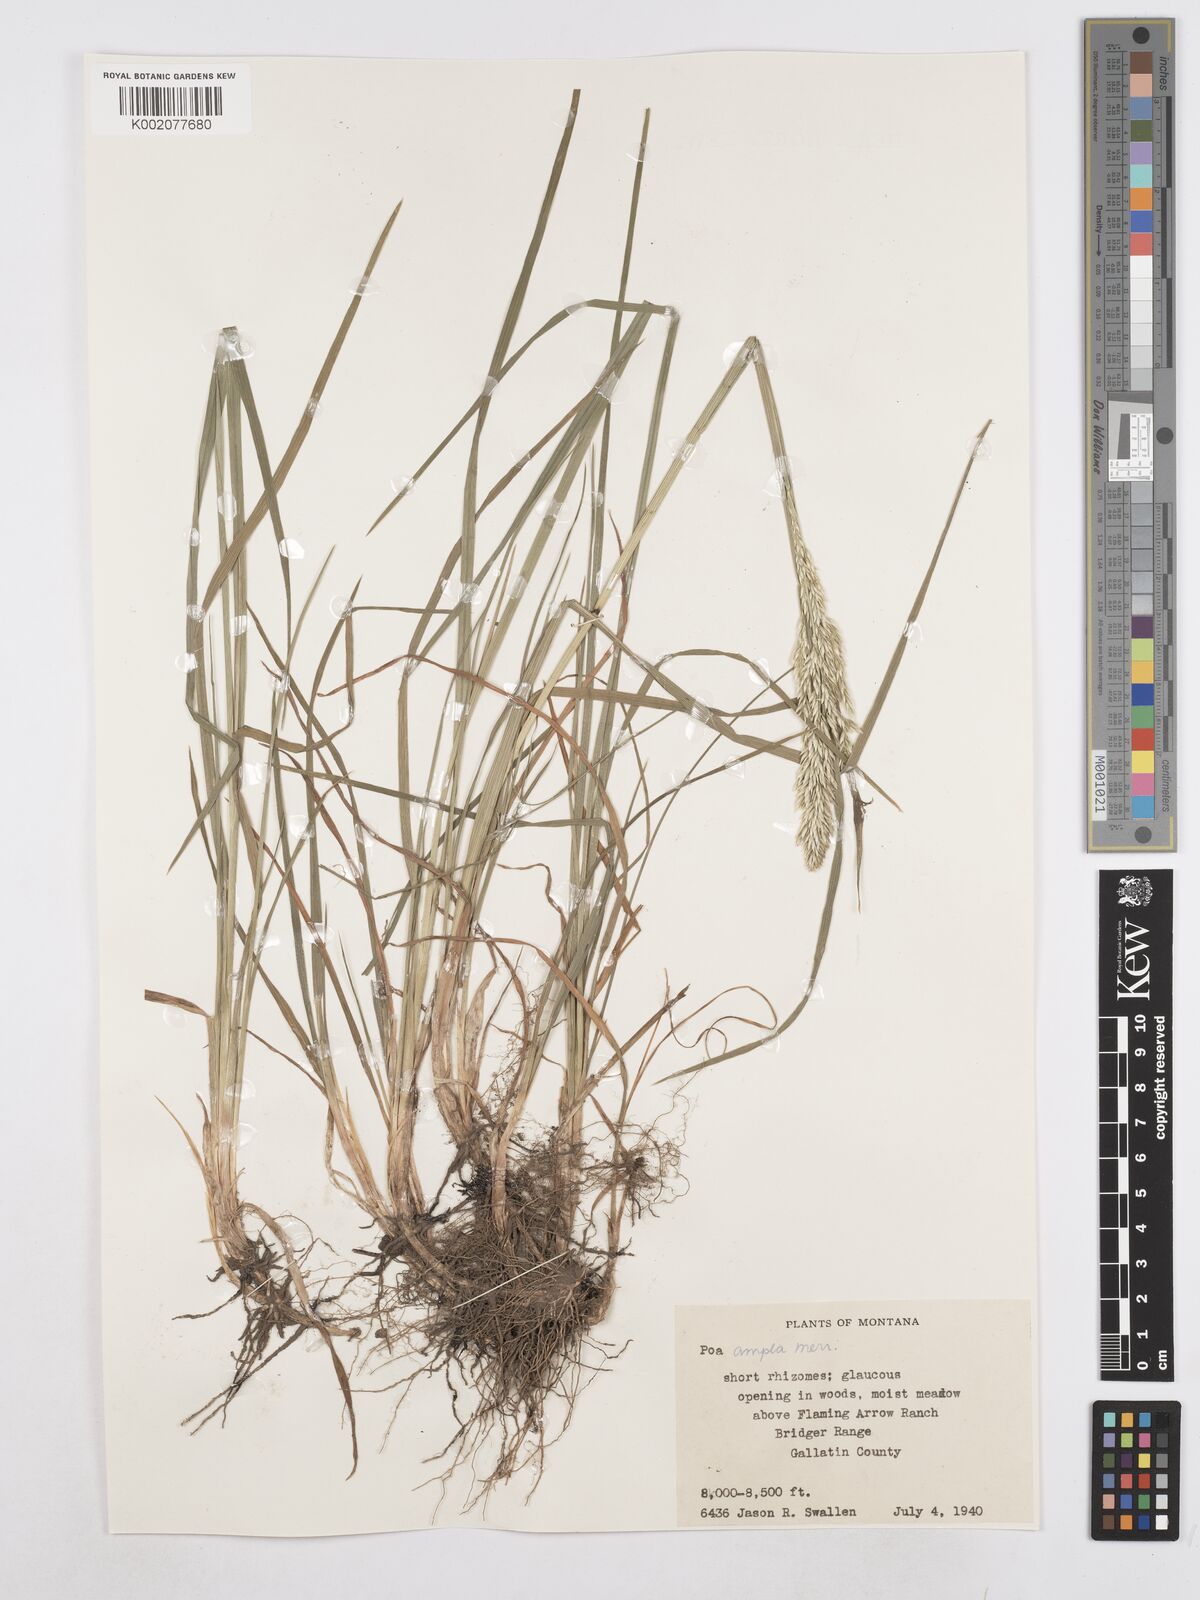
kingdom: Plantae
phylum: Tracheophyta
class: Liliopsida
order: Poales
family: Poaceae
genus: Poa
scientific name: Poa secunda
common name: Sandberg bluegrass
